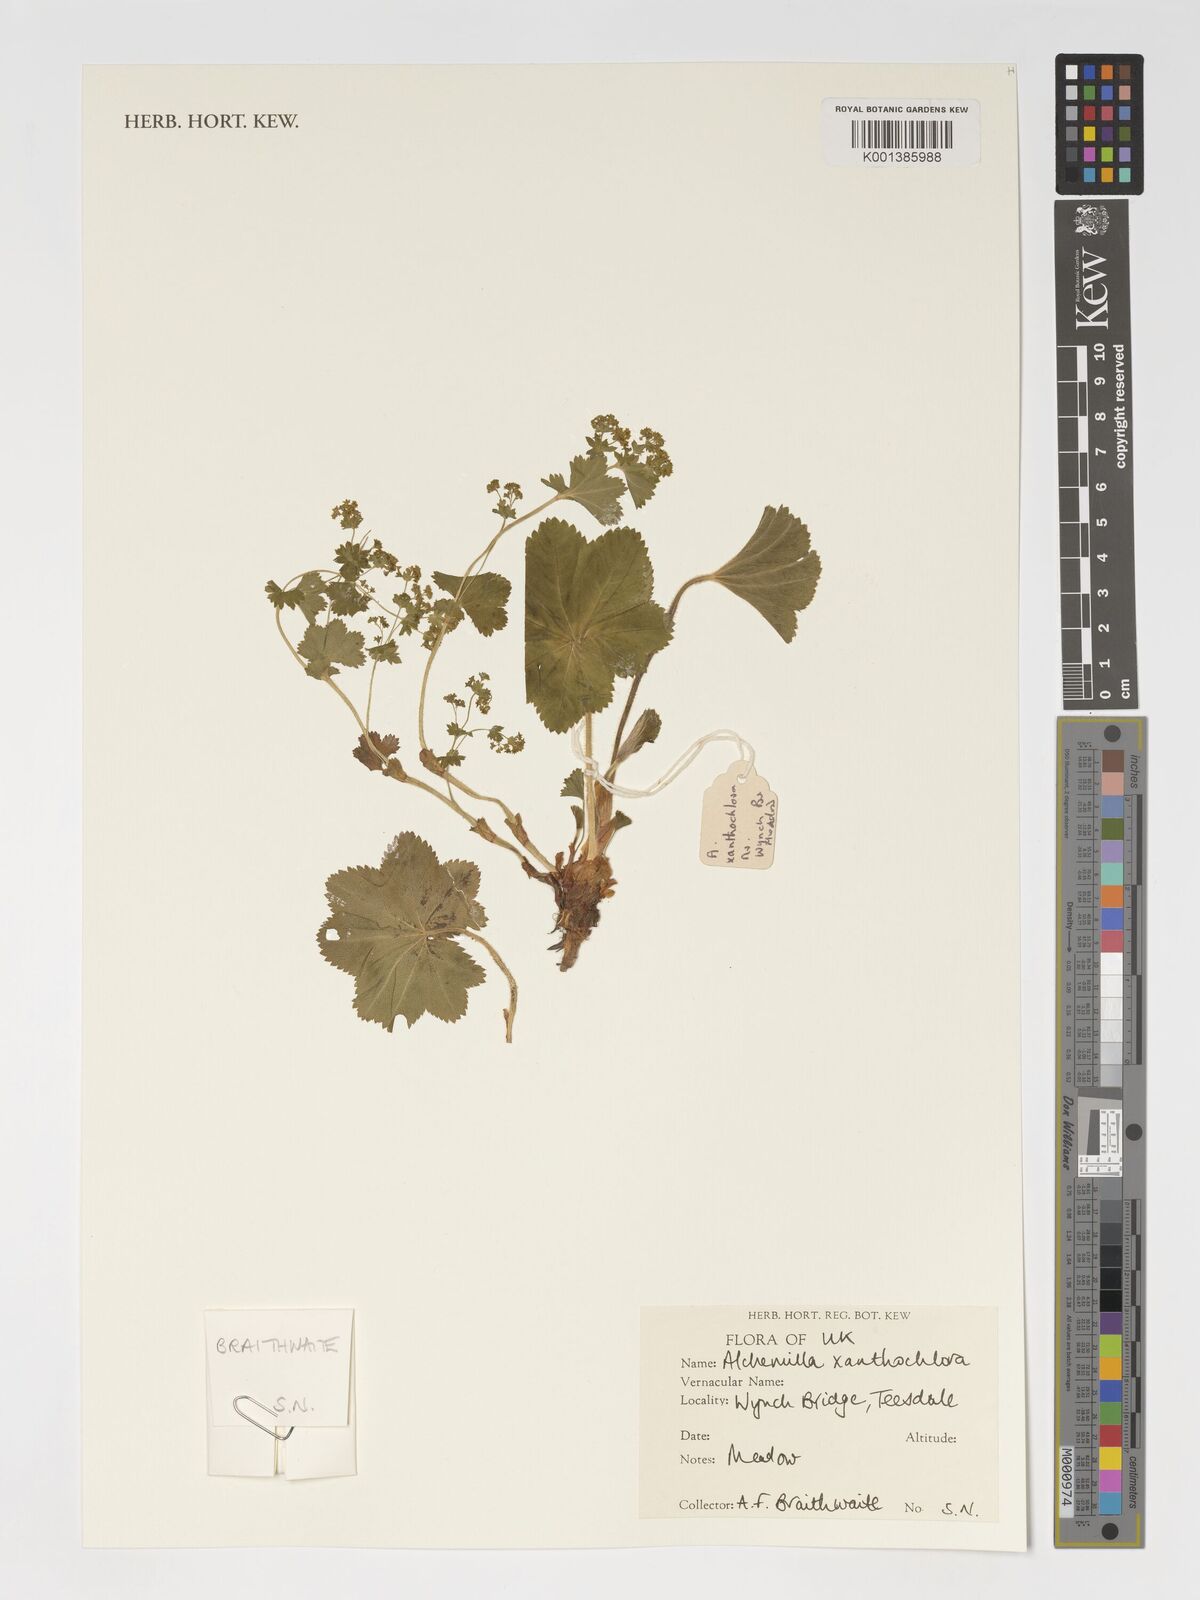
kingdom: Plantae
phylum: Tracheophyta
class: Magnoliopsida
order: Rosales
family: Rosaceae
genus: Alchemilla
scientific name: Alchemilla xanthochlora
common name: Intermediate lady's-mantle
